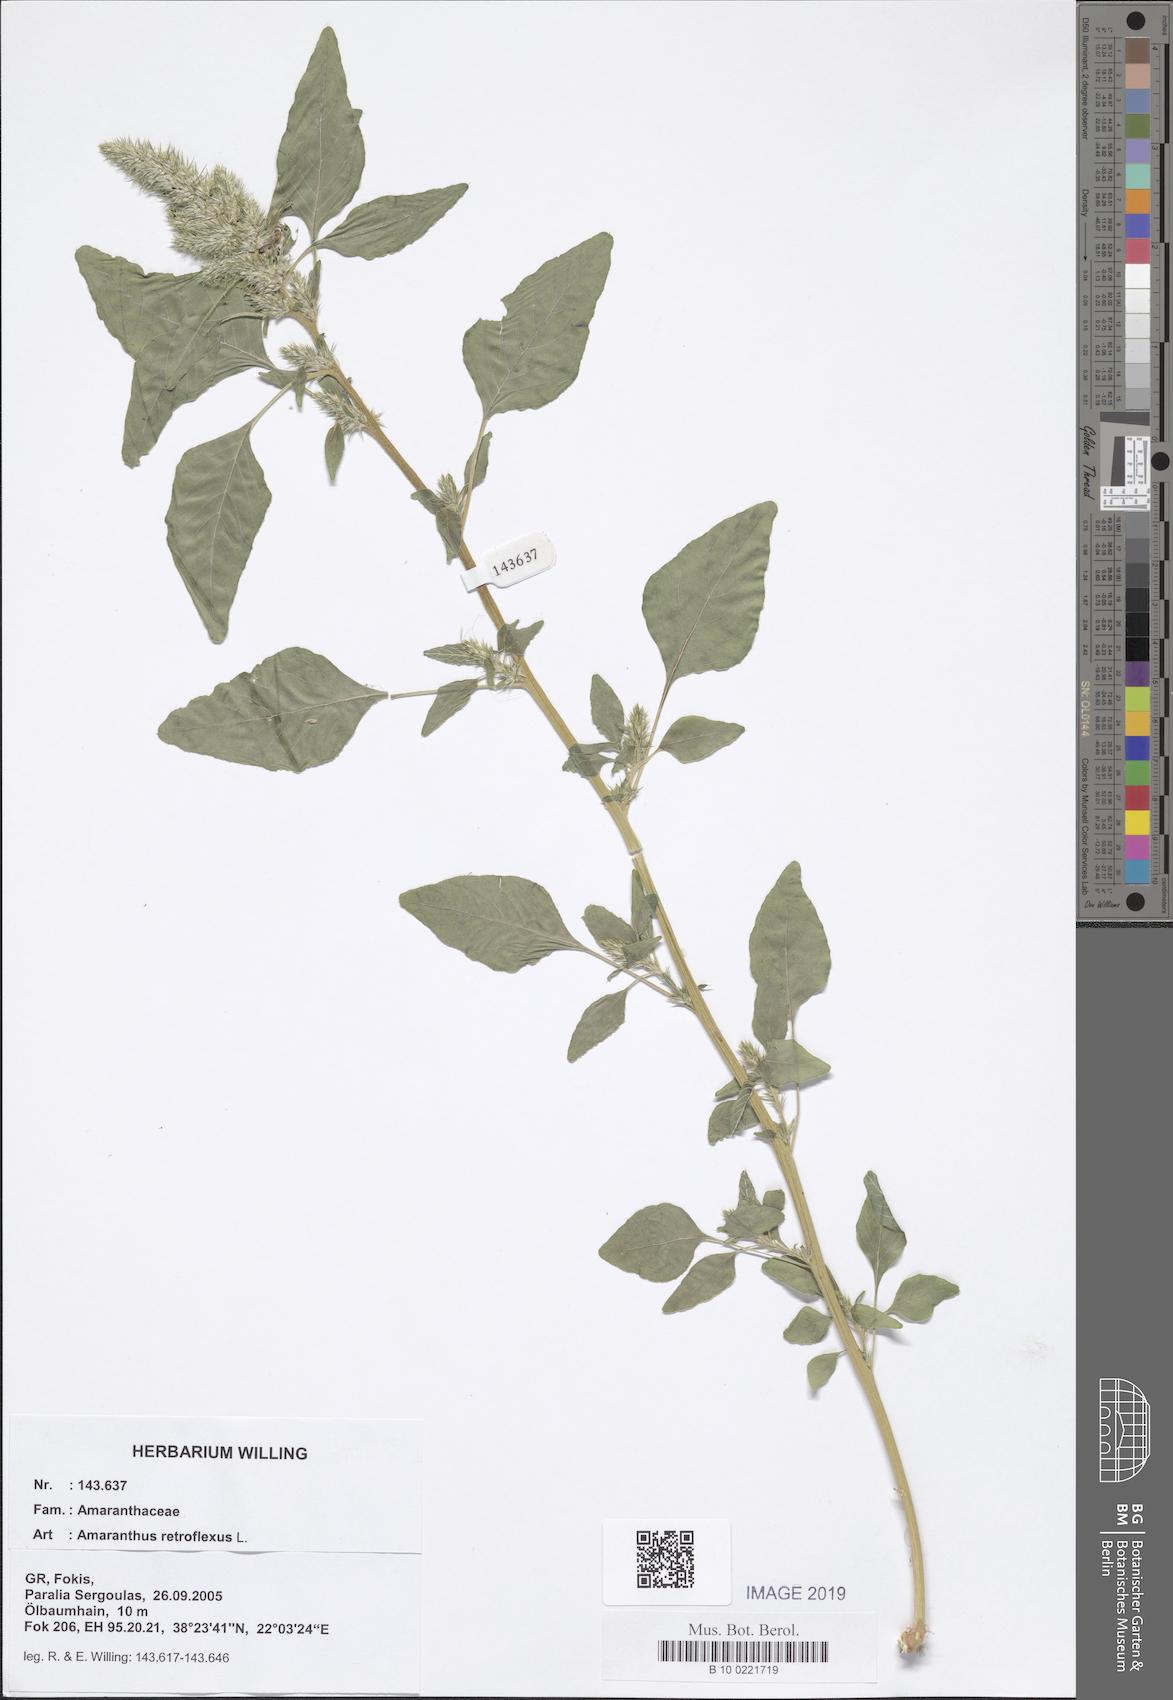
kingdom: Plantae
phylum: Tracheophyta
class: Magnoliopsida
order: Caryophyllales
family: Amaranthaceae
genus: Amaranthus
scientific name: Amaranthus retroflexus
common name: Redroot amaranth
